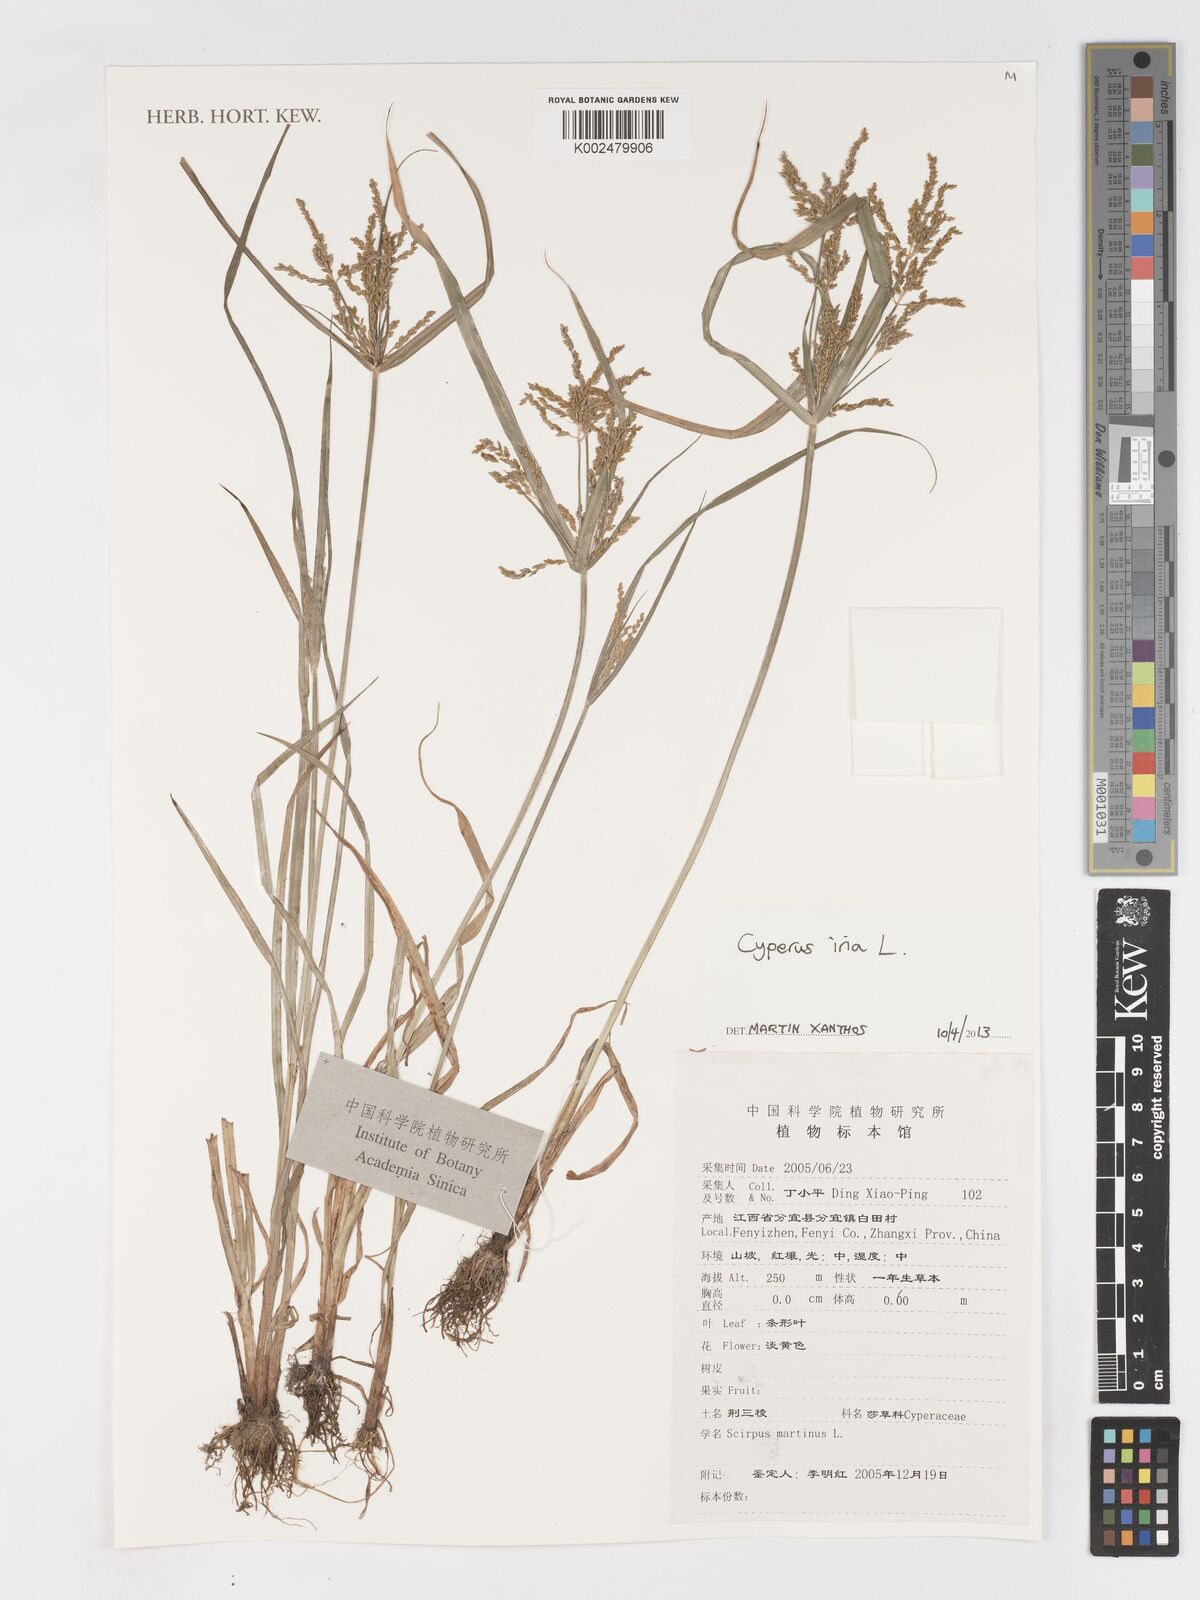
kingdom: Plantae
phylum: Tracheophyta
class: Liliopsida
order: Poales
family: Cyperaceae
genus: Cyperus
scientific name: Cyperus iria
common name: Ricefield flatsedge
